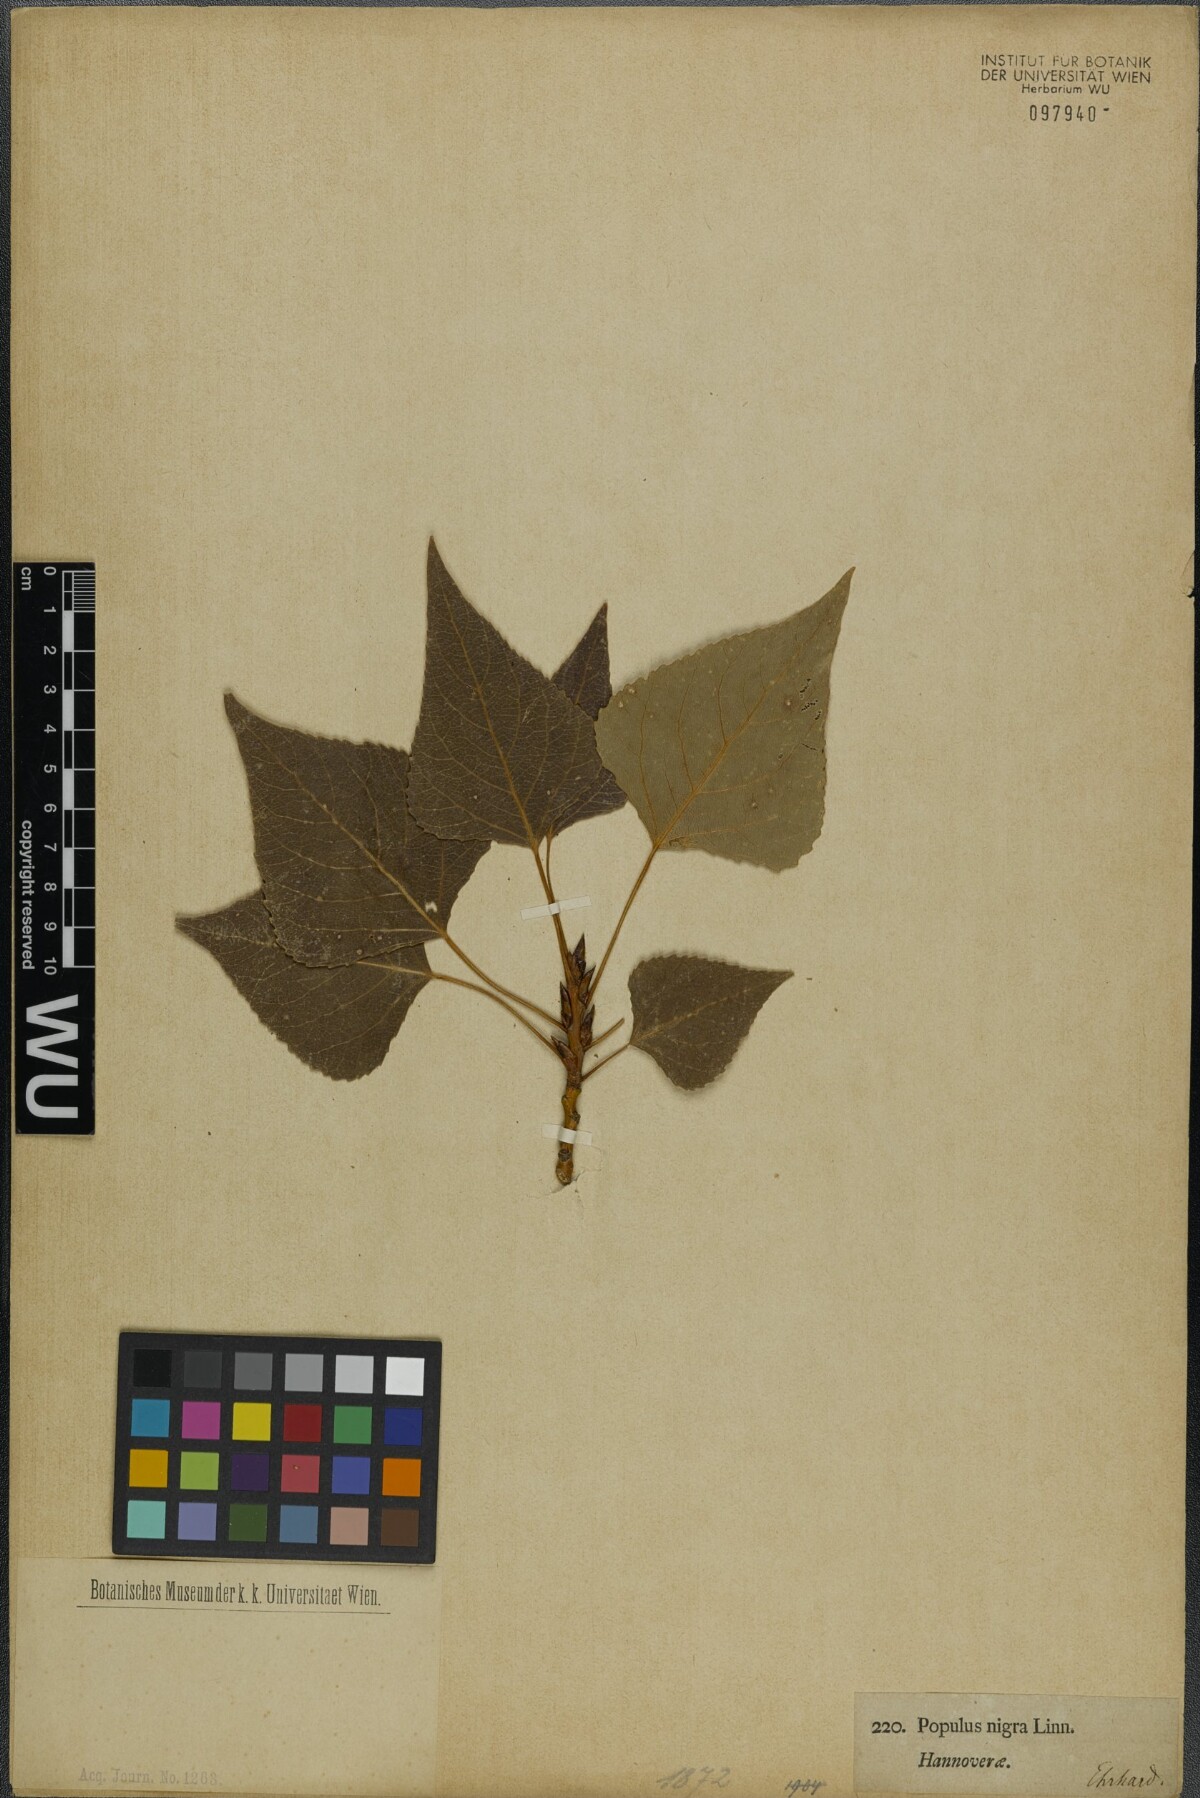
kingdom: Plantae
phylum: Tracheophyta
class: Magnoliopsida
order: Malpighiales
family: Salicaceae
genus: Populus
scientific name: Populus nigra
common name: Black poplar
